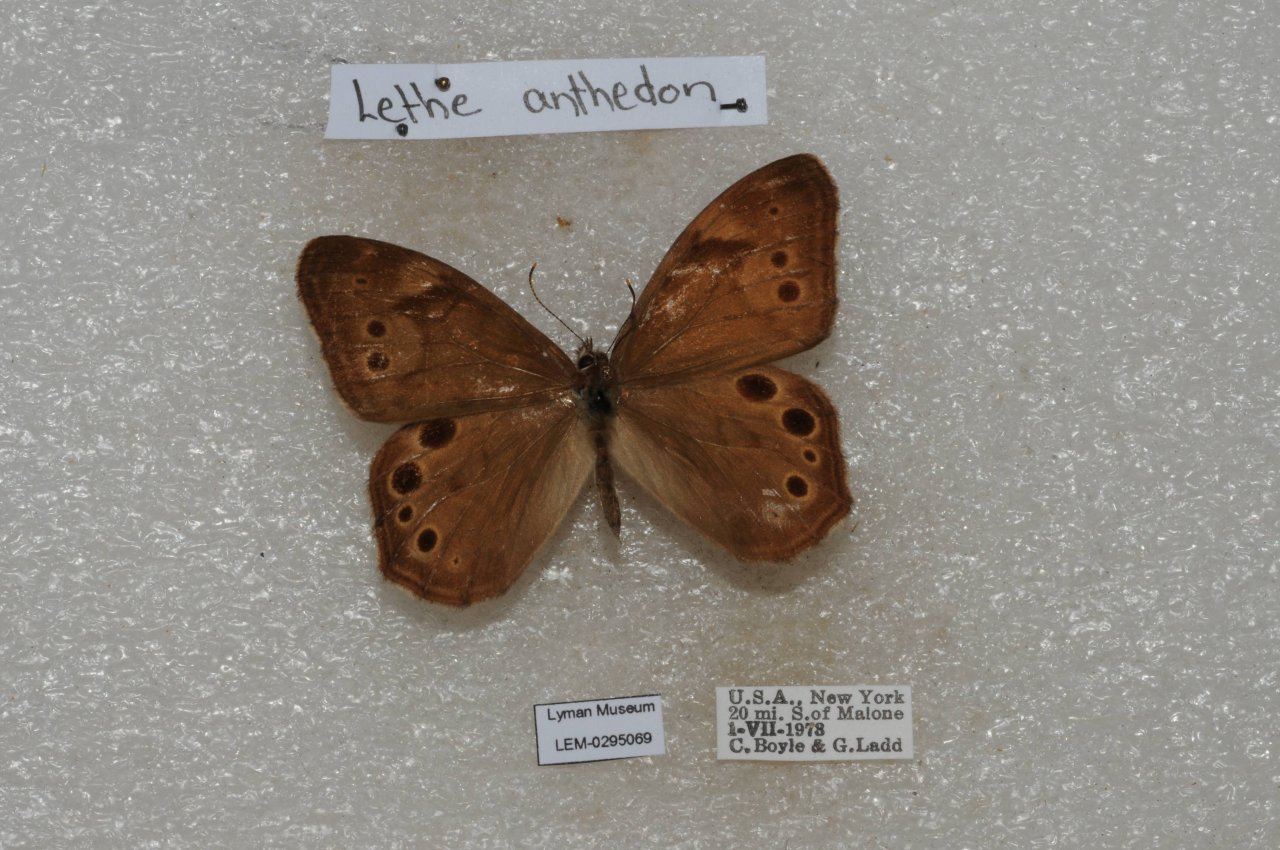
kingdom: Animalia
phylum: Arthropoda
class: Insecta
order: Lepidoptera
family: Nymphalidae
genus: Lethe
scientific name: Lethe anthedon
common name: Northern Pearly-Eye
